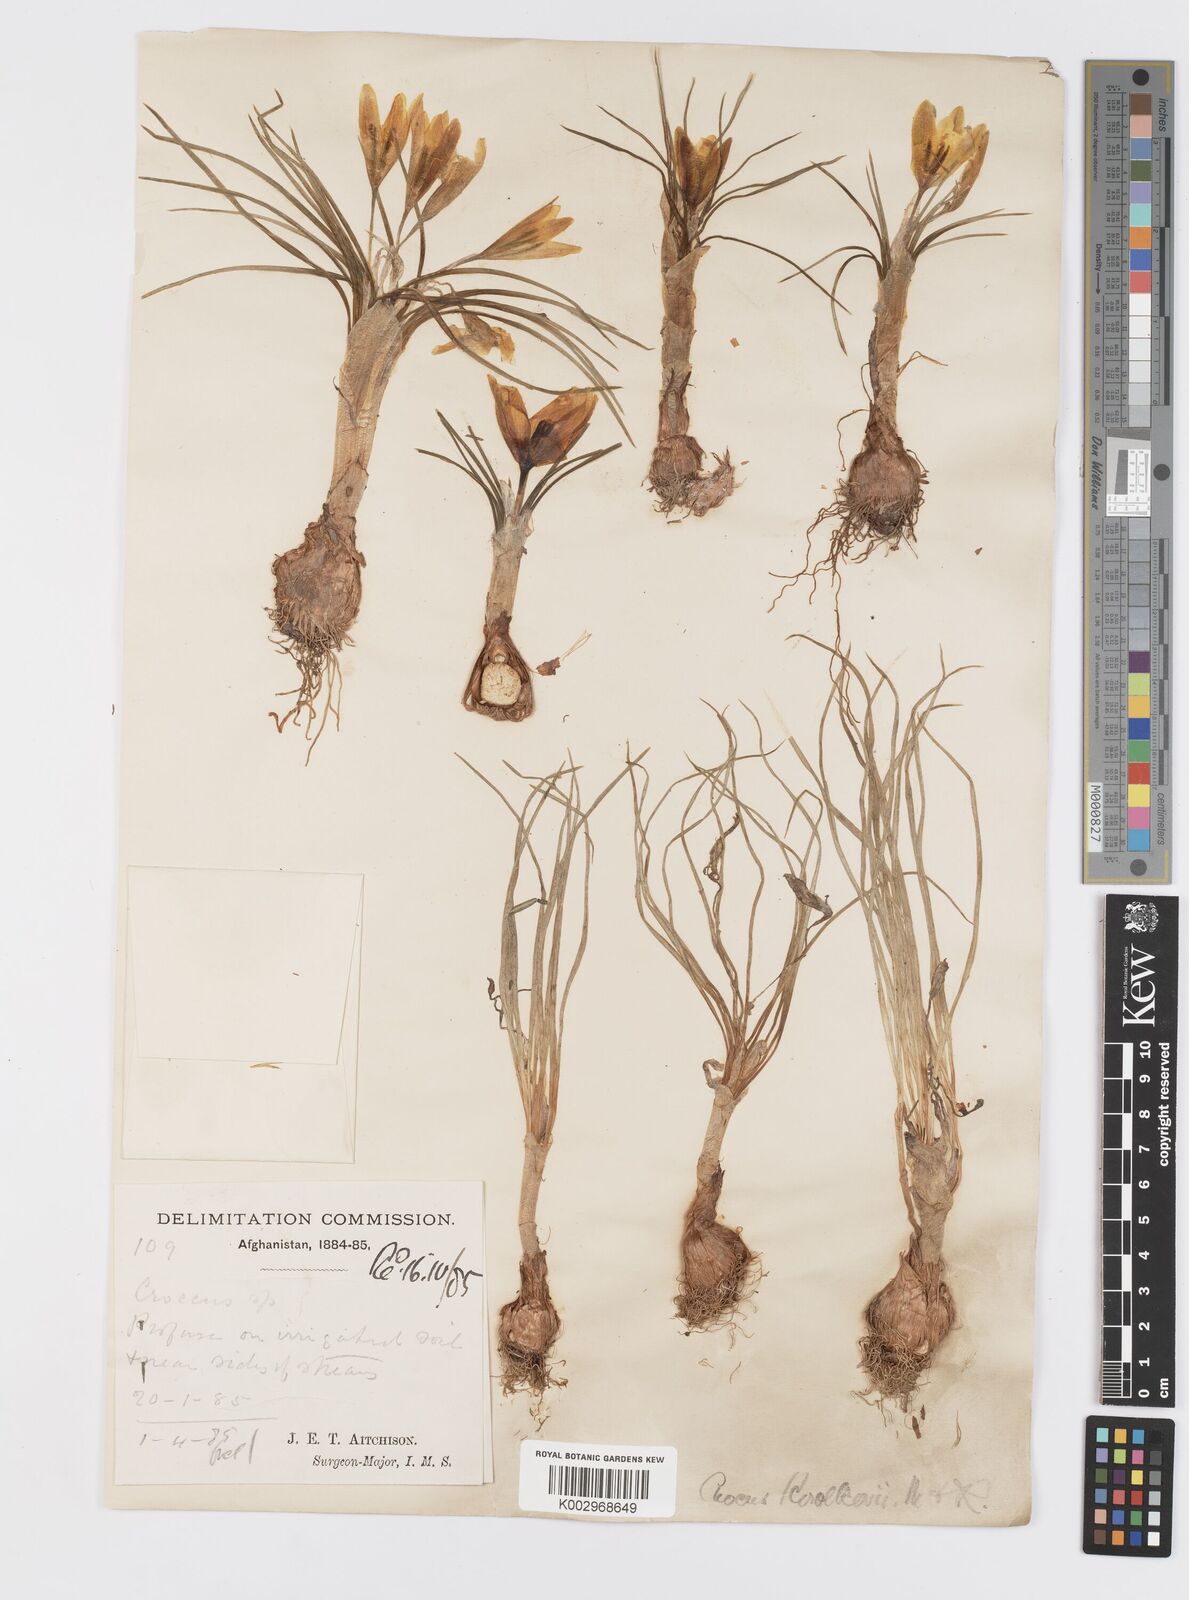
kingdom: Plantae
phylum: Tracheophyta
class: Liliopsida
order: Asparagales
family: Iridaceae
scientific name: Iridaceae
